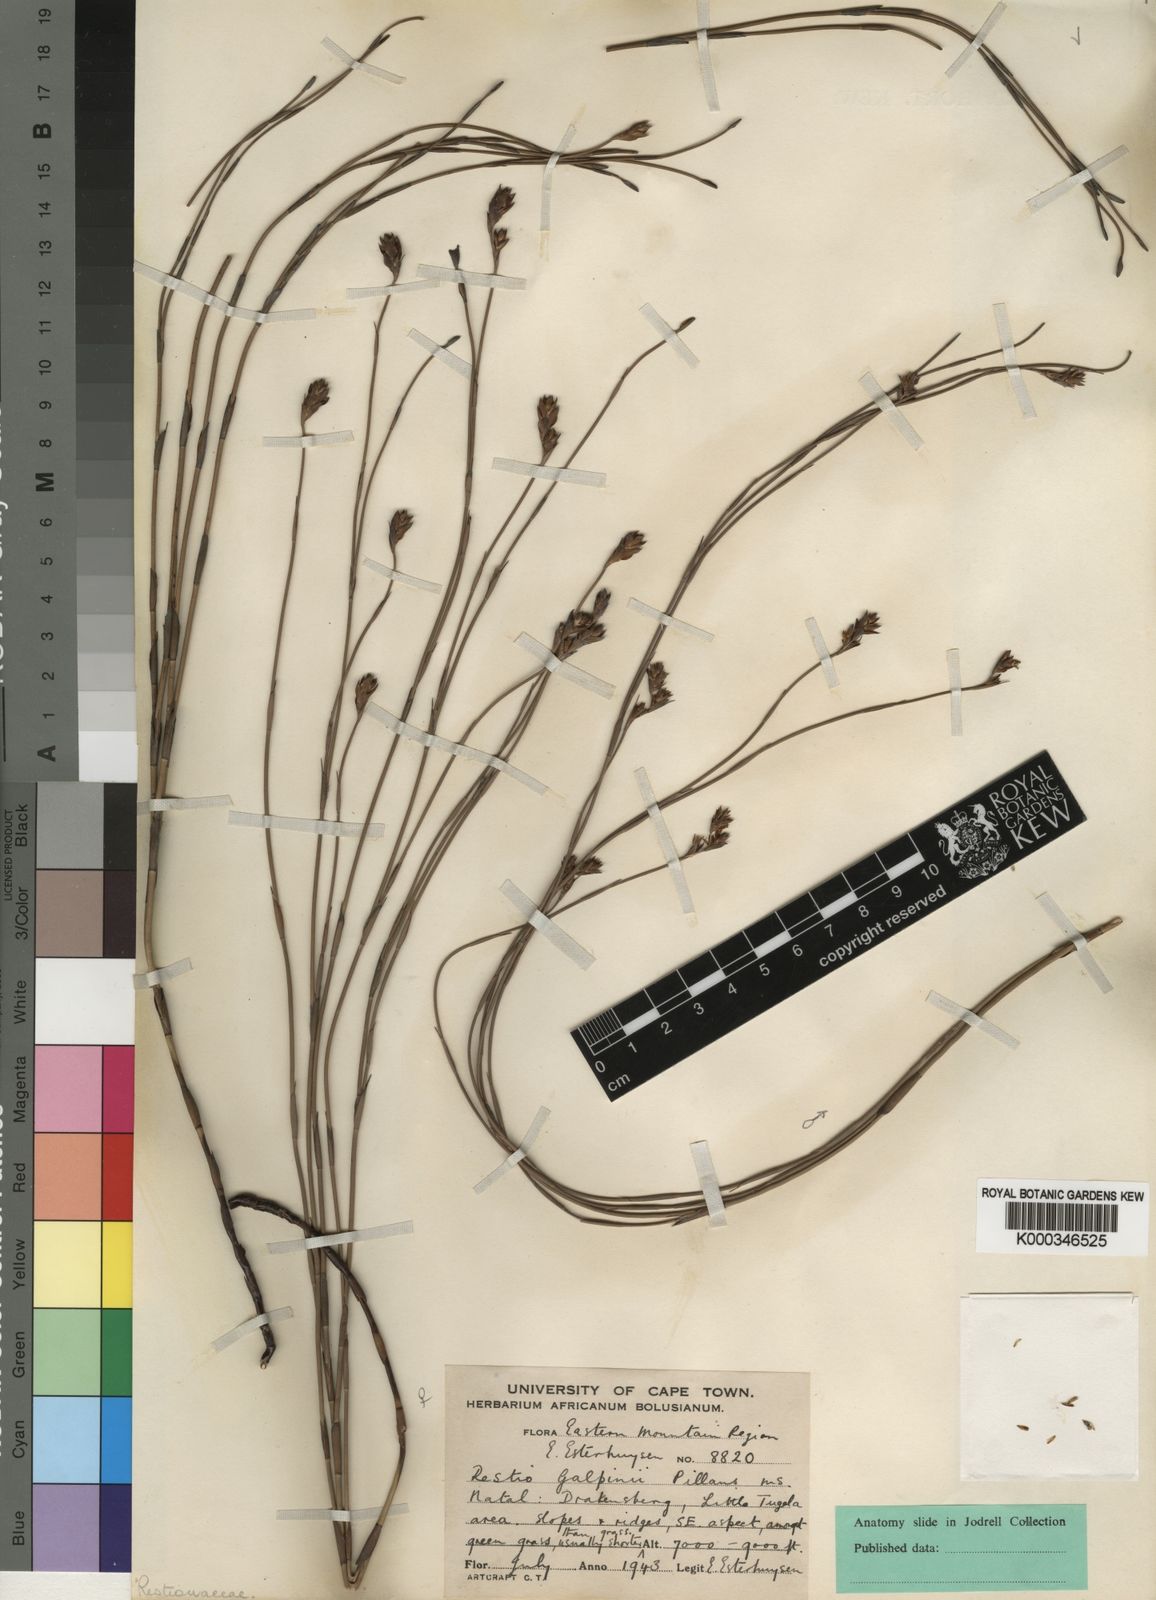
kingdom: Plantae
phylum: Tracheophyta
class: Liliopsida
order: Poales
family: Restionaceae
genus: Platycaulos
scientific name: Platycaulos galpinii
